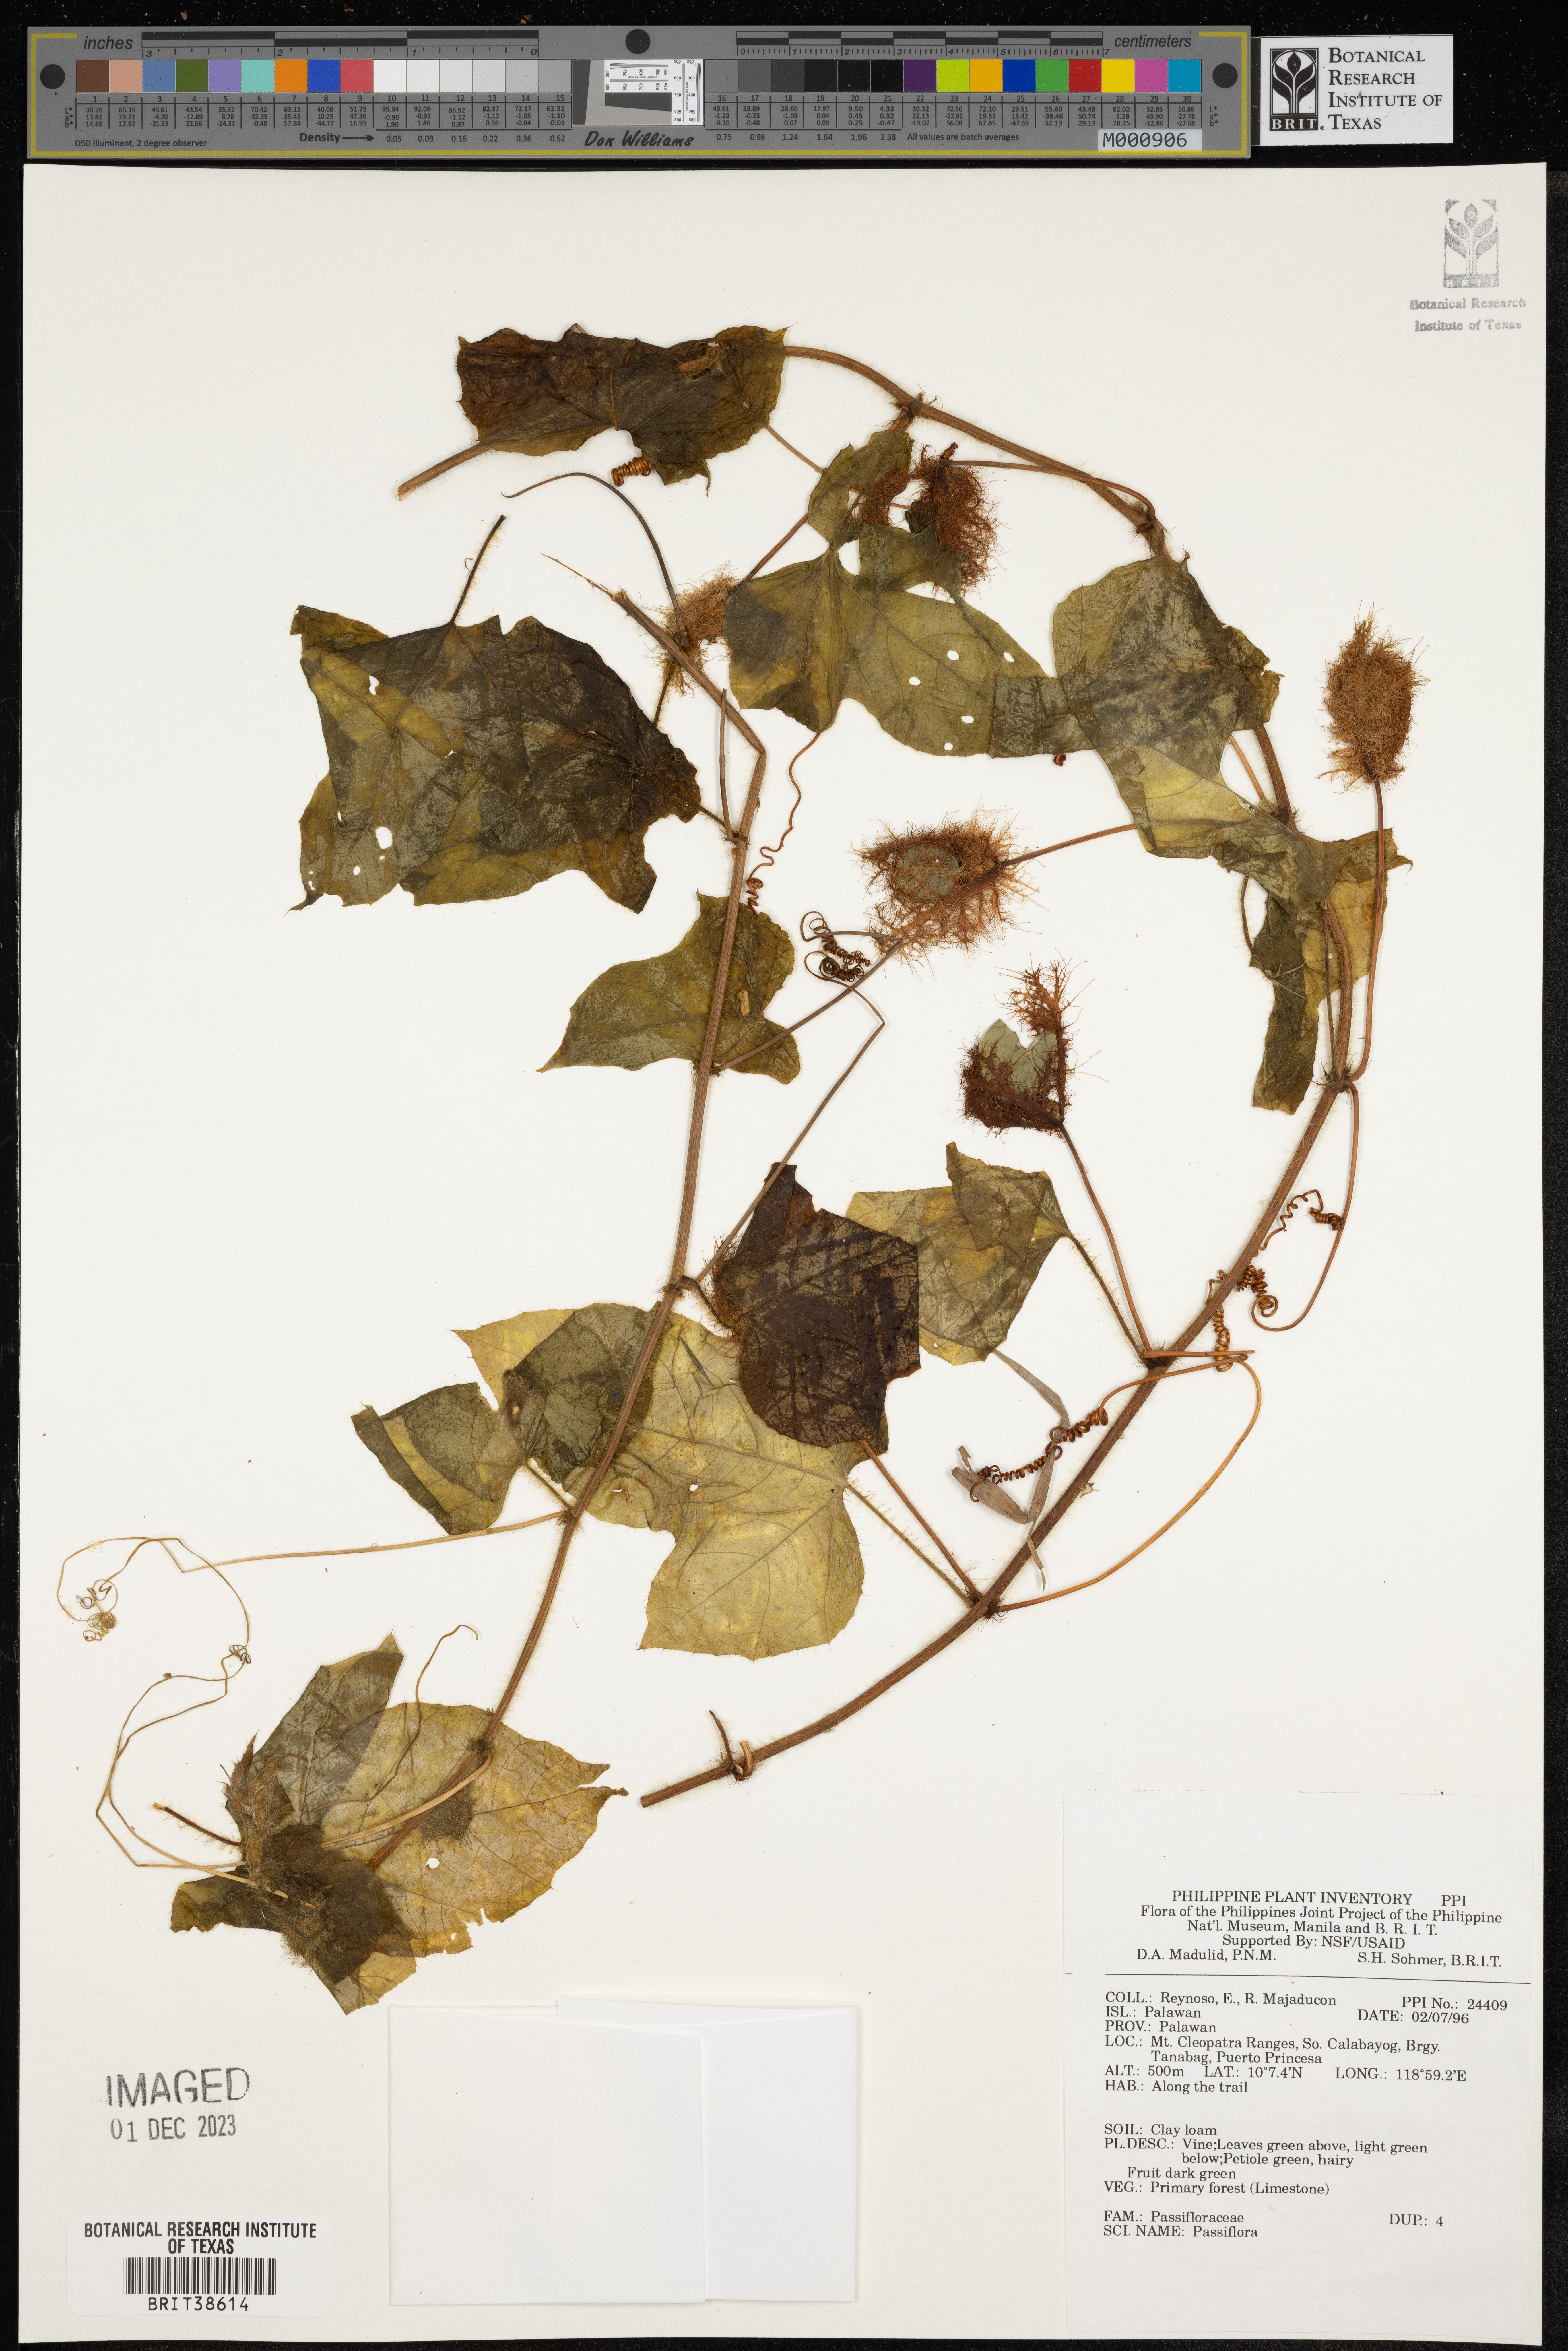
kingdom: Plantae
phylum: Tracheophyta
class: Magnoliopsida
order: Malpighiales
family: Passifloraceae
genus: Passiflora
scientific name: Passiflora
